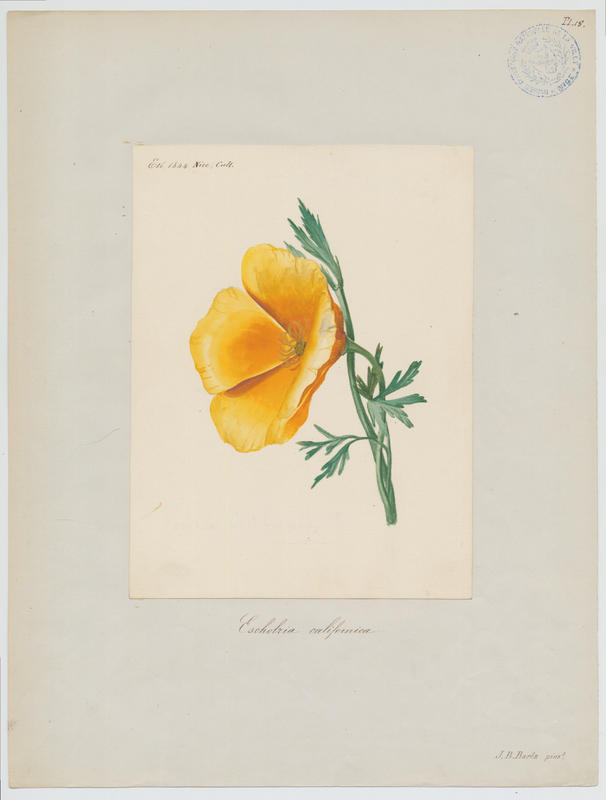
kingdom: Plantae
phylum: Tracheophyta
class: Magnoliopsida
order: Ranunculales
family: Papaveraceae
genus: Eschscholzia
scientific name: Eschscholzia californica
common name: California poppy
